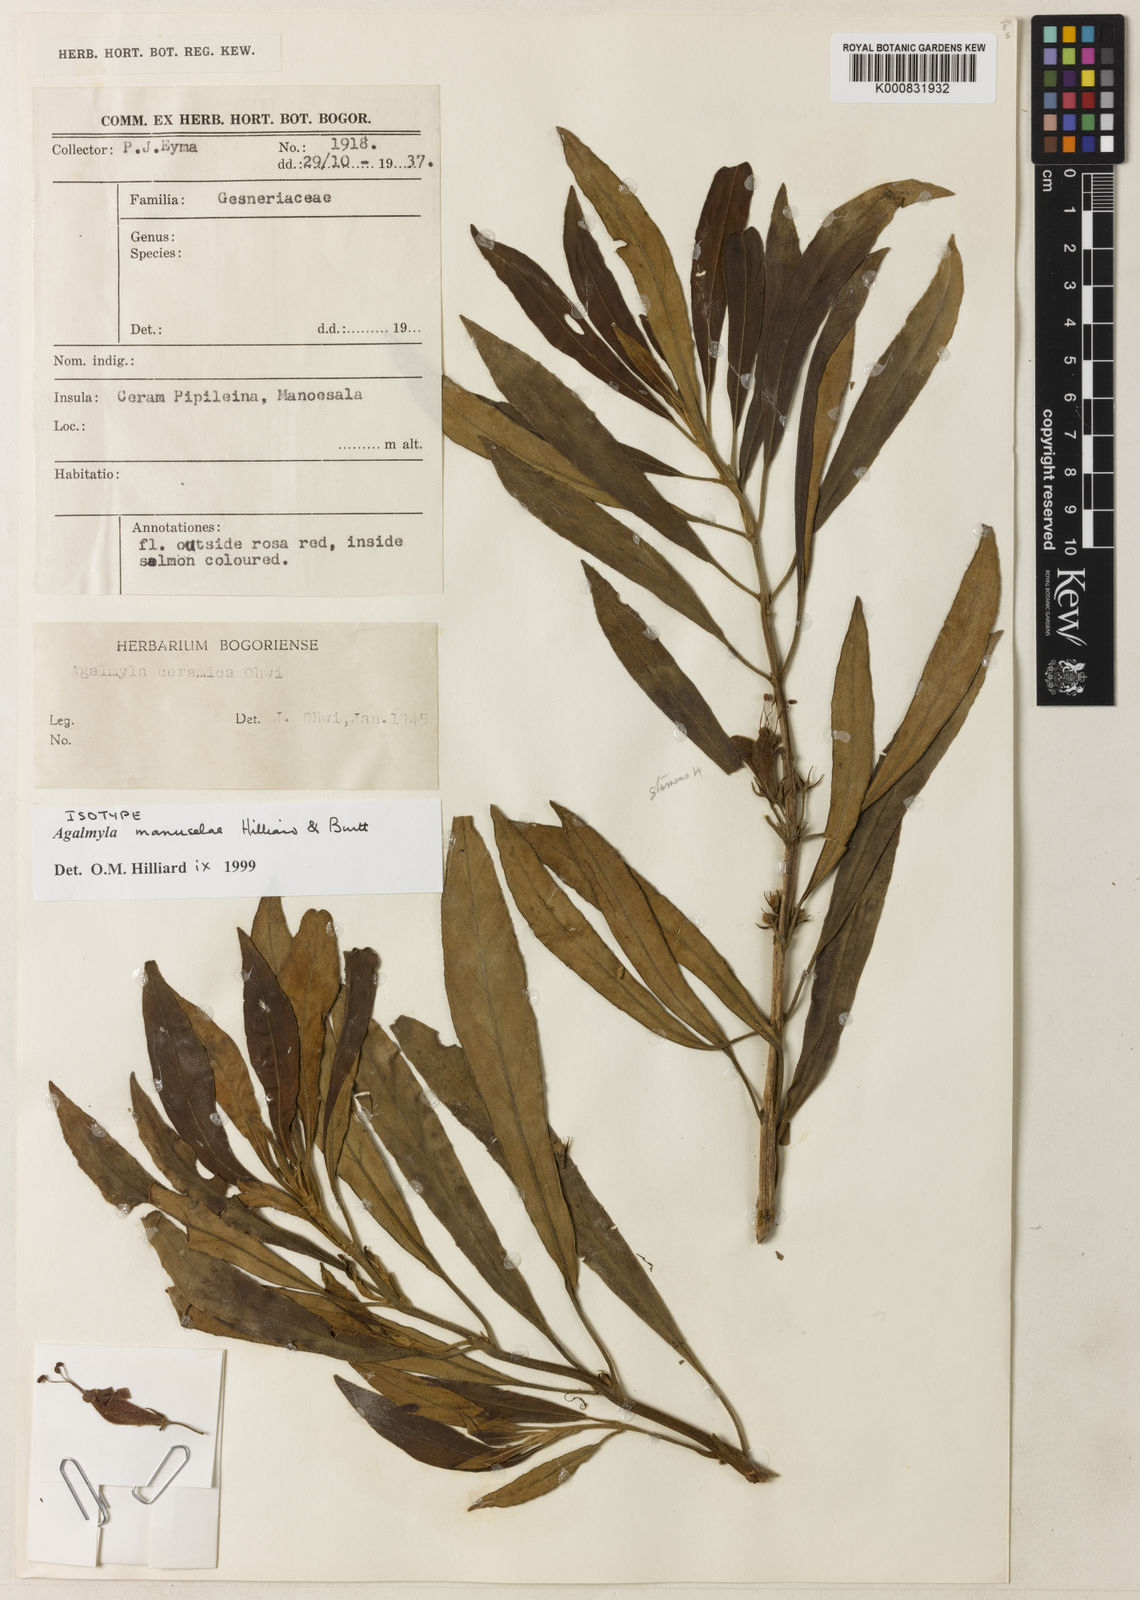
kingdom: Plantae
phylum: Tracheophyta
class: Magnoliopsida
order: Lamiales
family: Gesneriaceae
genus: Agalmyla
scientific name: Agalmyla manuselae
